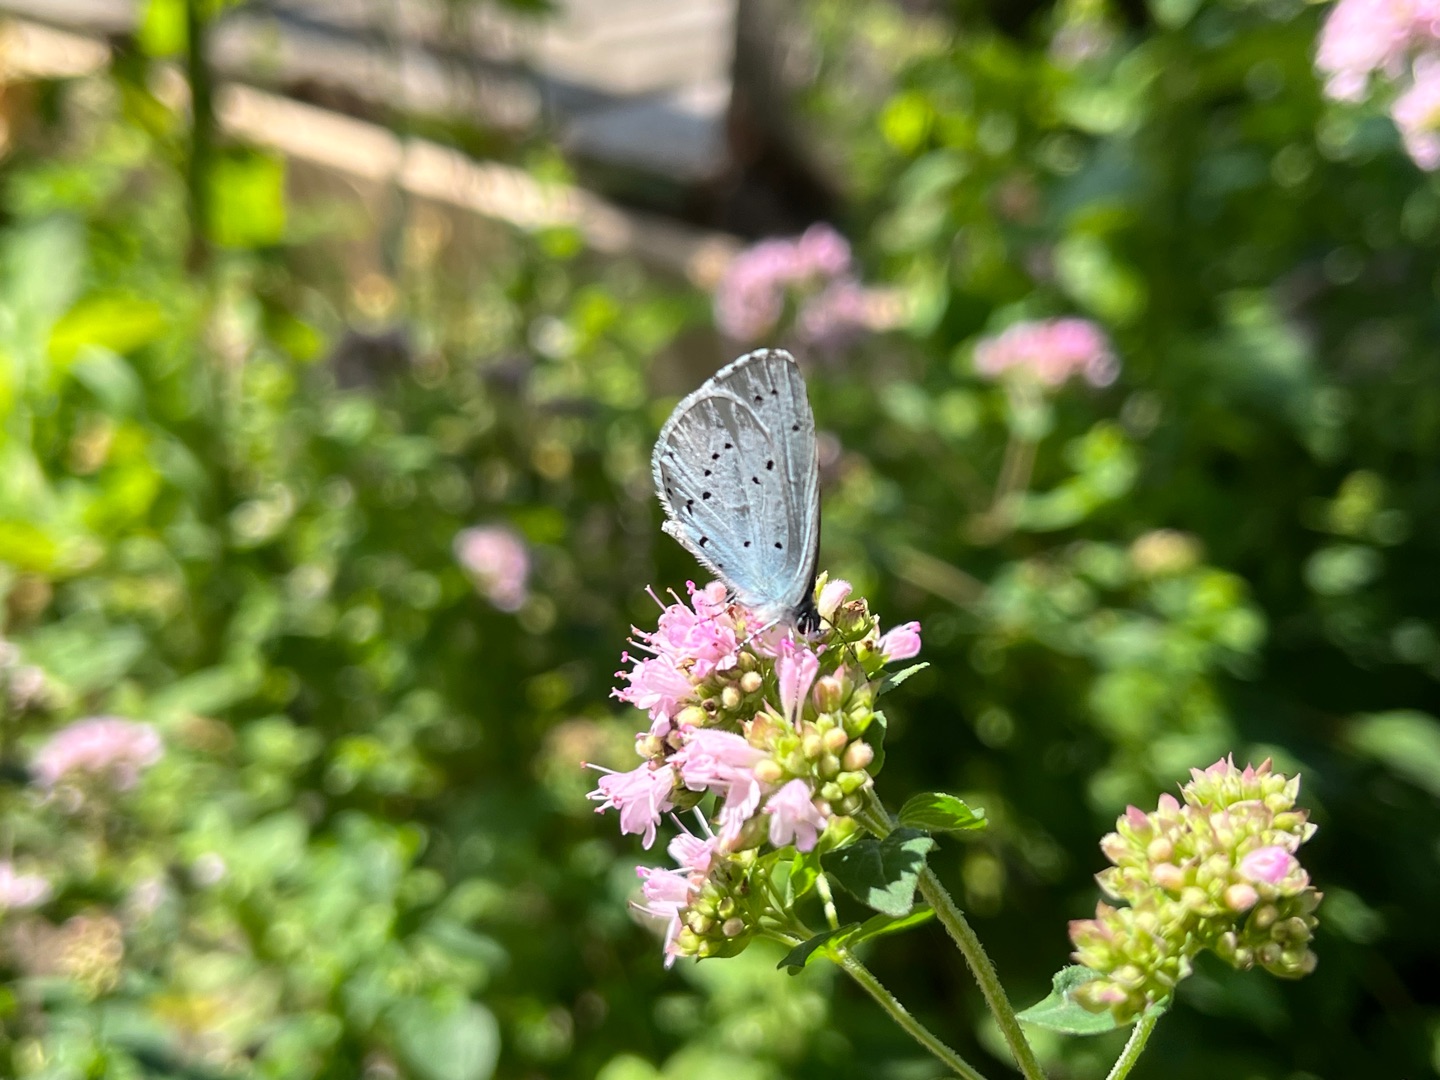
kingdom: Animalia
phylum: Arthropoda
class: Insecta
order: Lepidoptera
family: Lycaenidae
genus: Celastrina
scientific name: Celastrina argiolus
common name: Skovblåfugl
